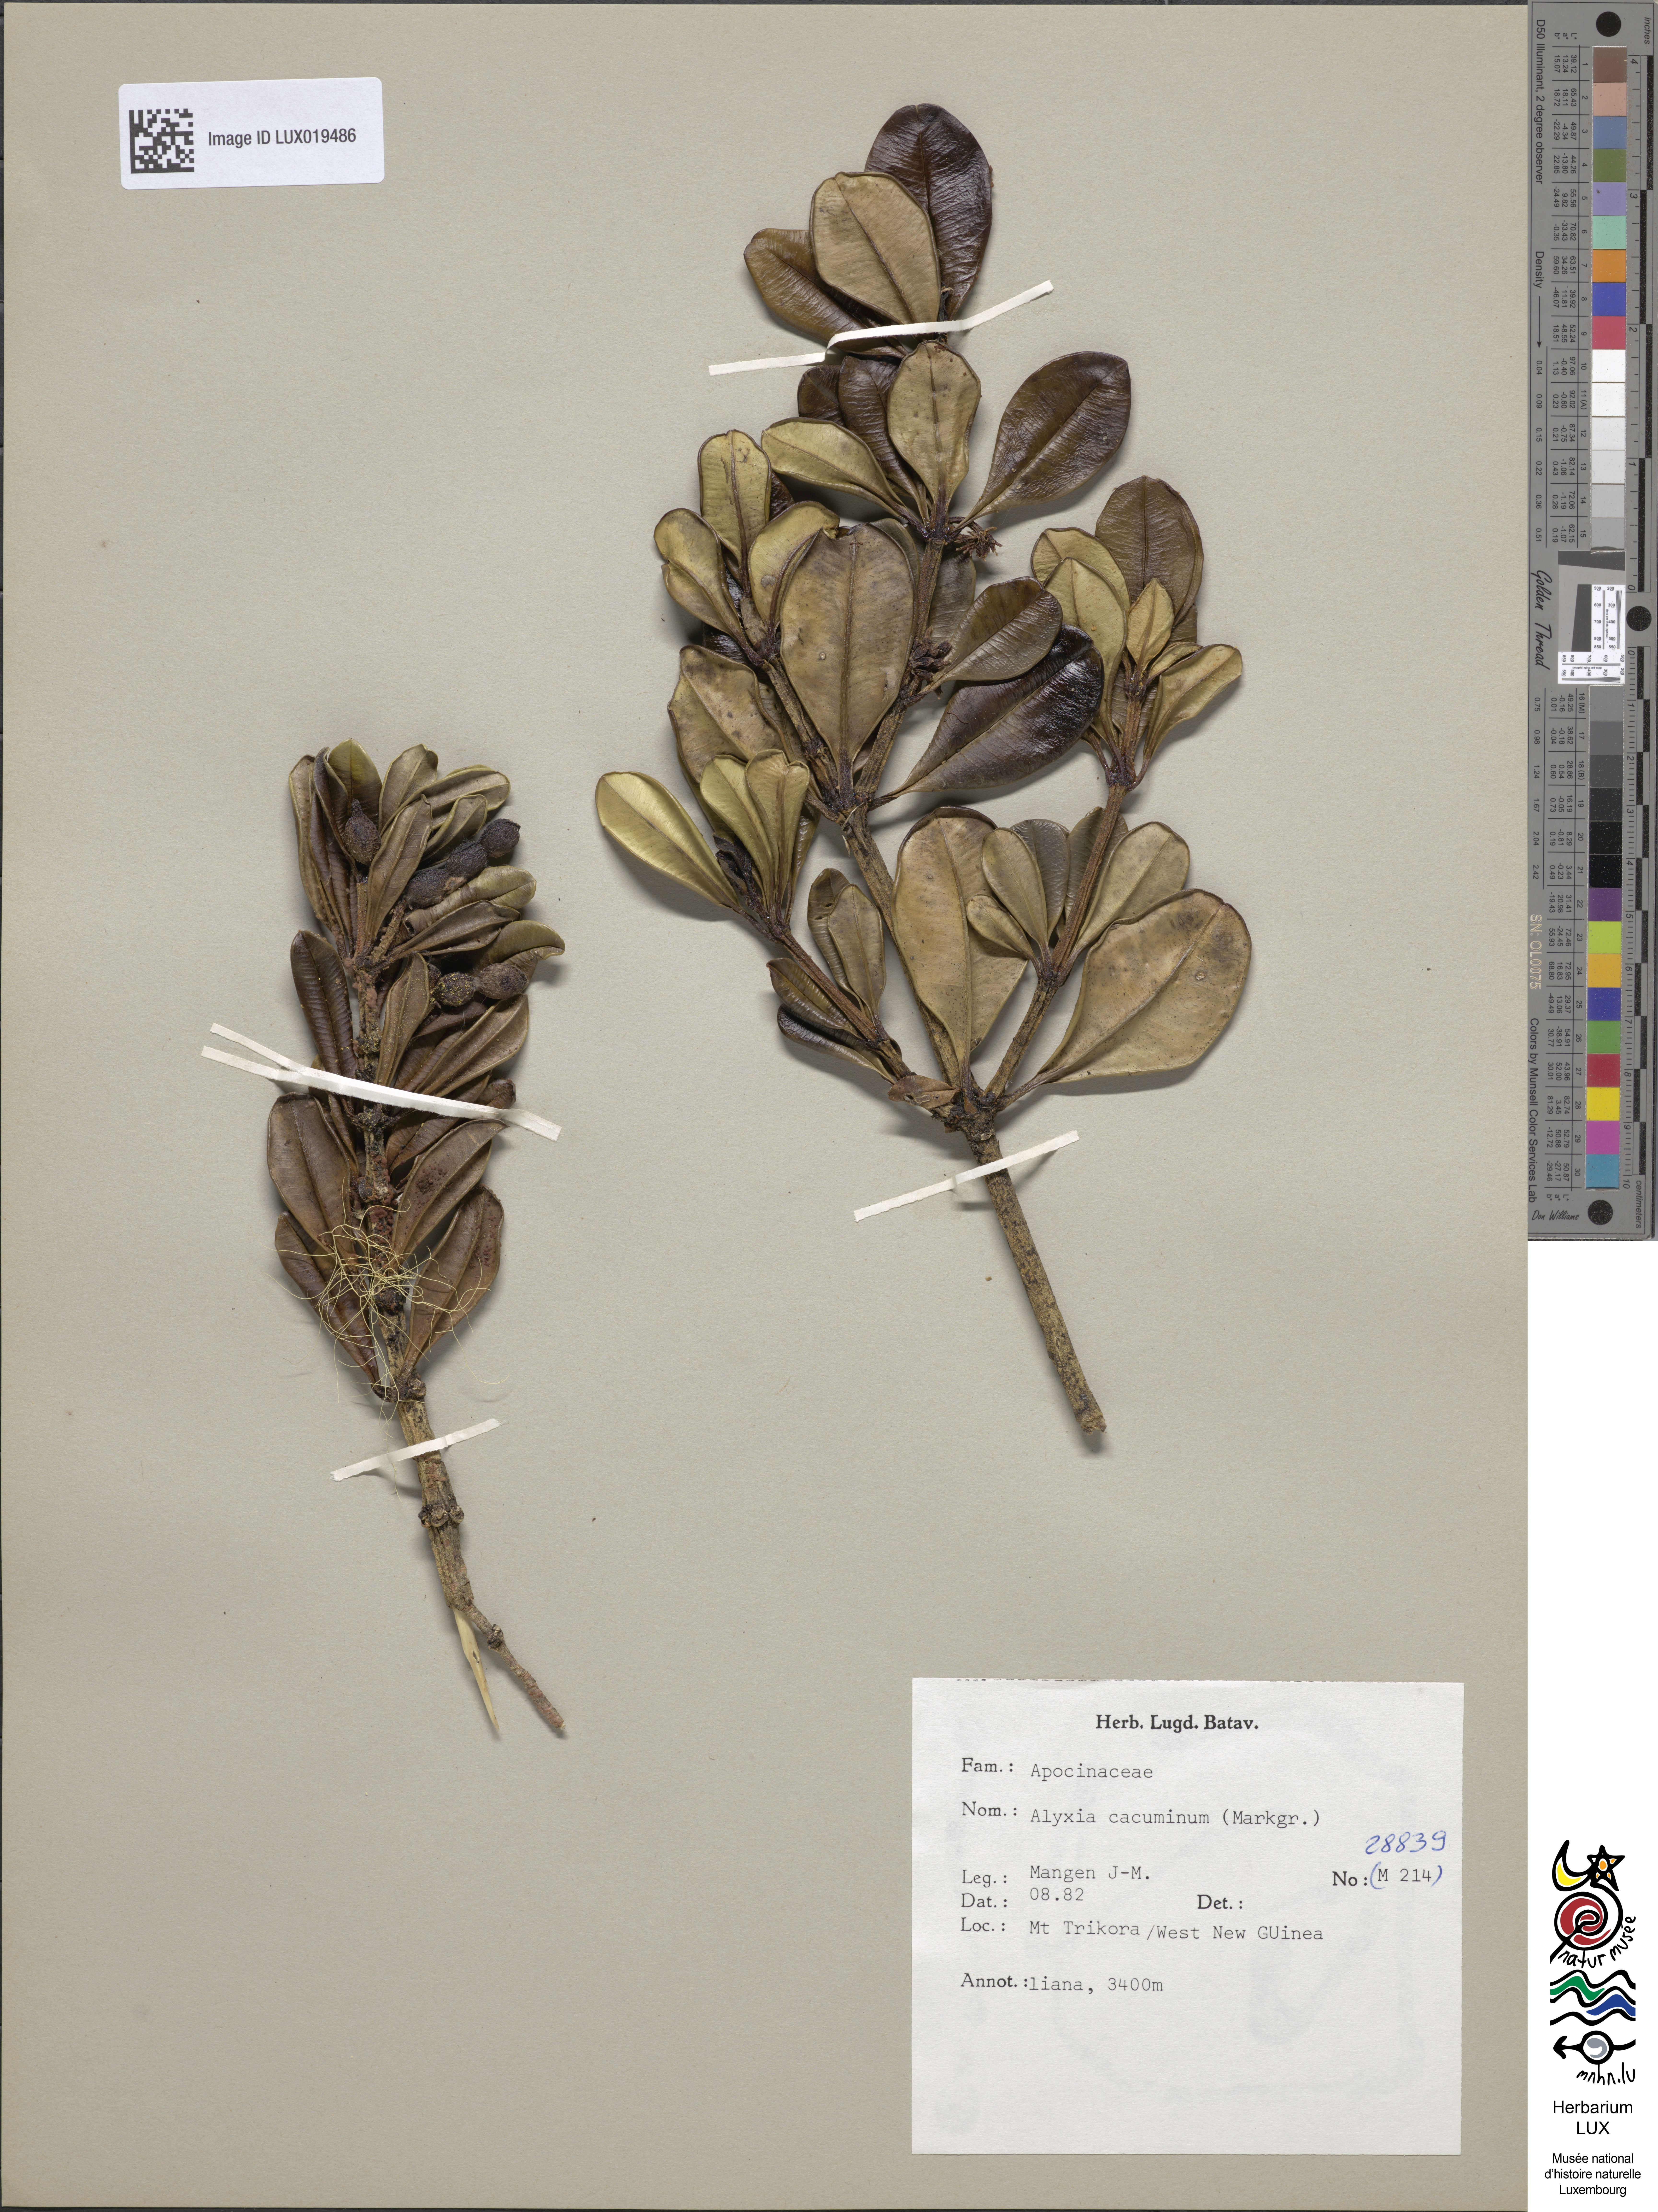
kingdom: Plantae
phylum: Tracheophyta
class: Magnoliopsida
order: Gentianales
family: Apocynaceae
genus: Alyxia
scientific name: Alyxia cacuminum
